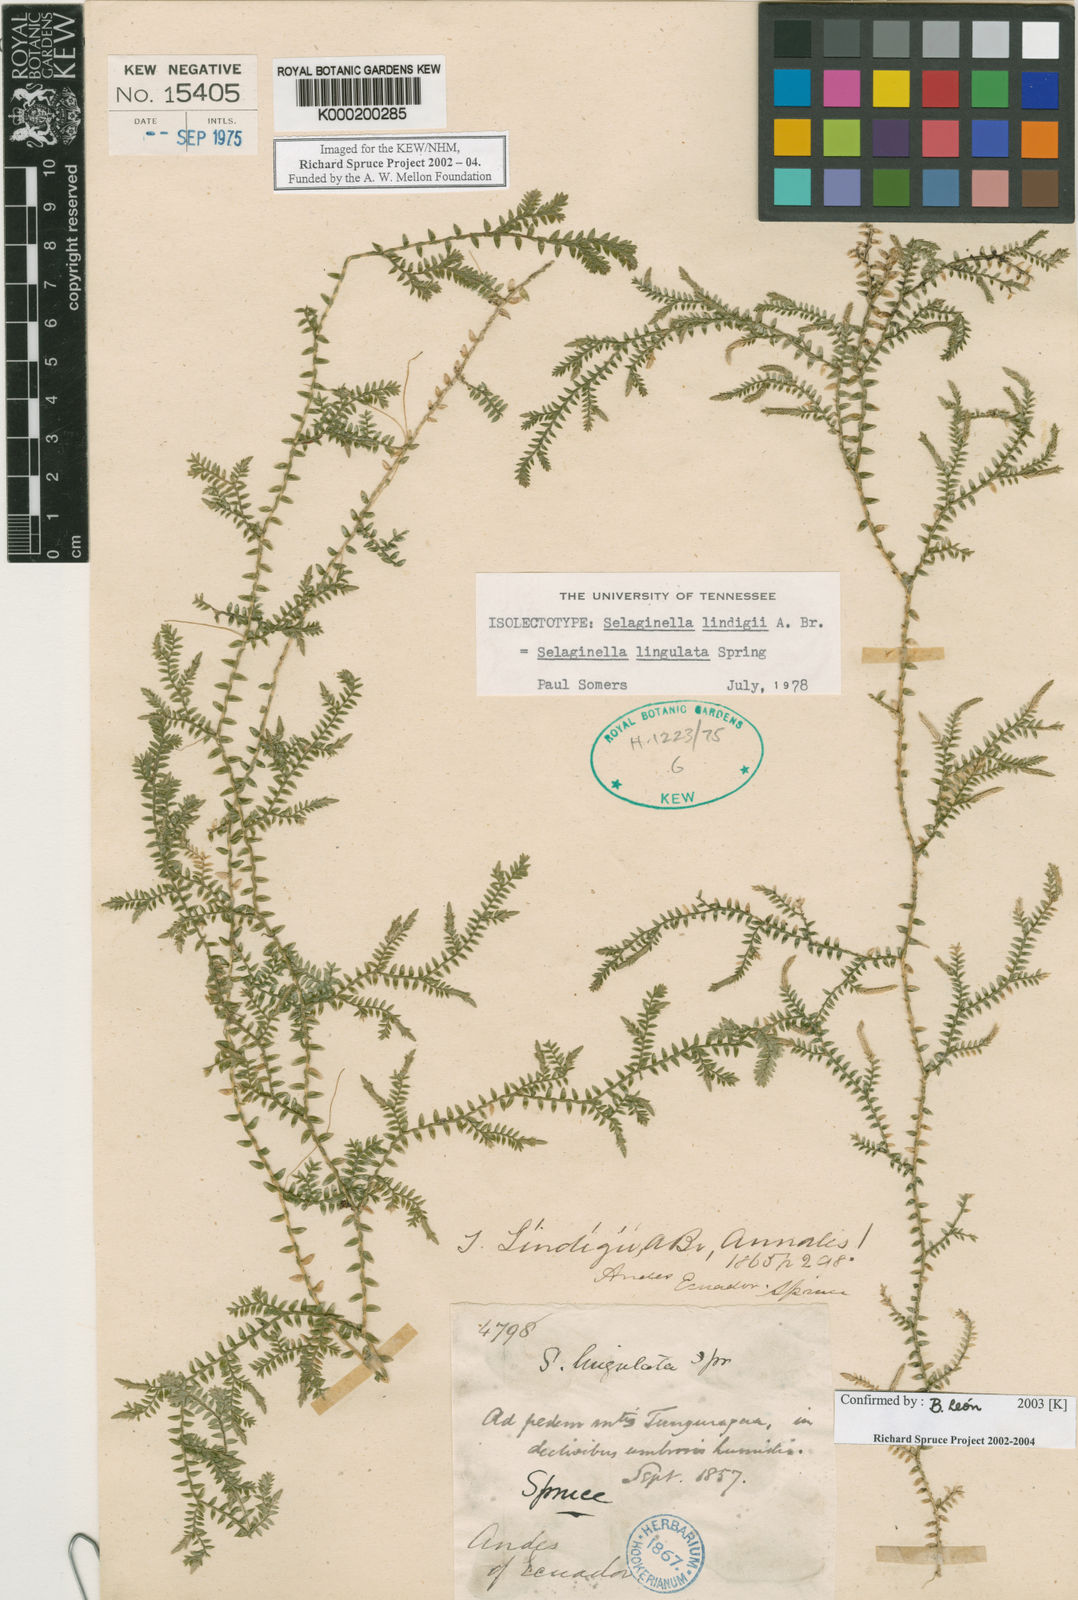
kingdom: Plantae
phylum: Tracheophyta
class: Lycopodiopsida
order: Selaginellales
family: Selaginellaceae
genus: Selaginella
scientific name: Selaginella lingulata
